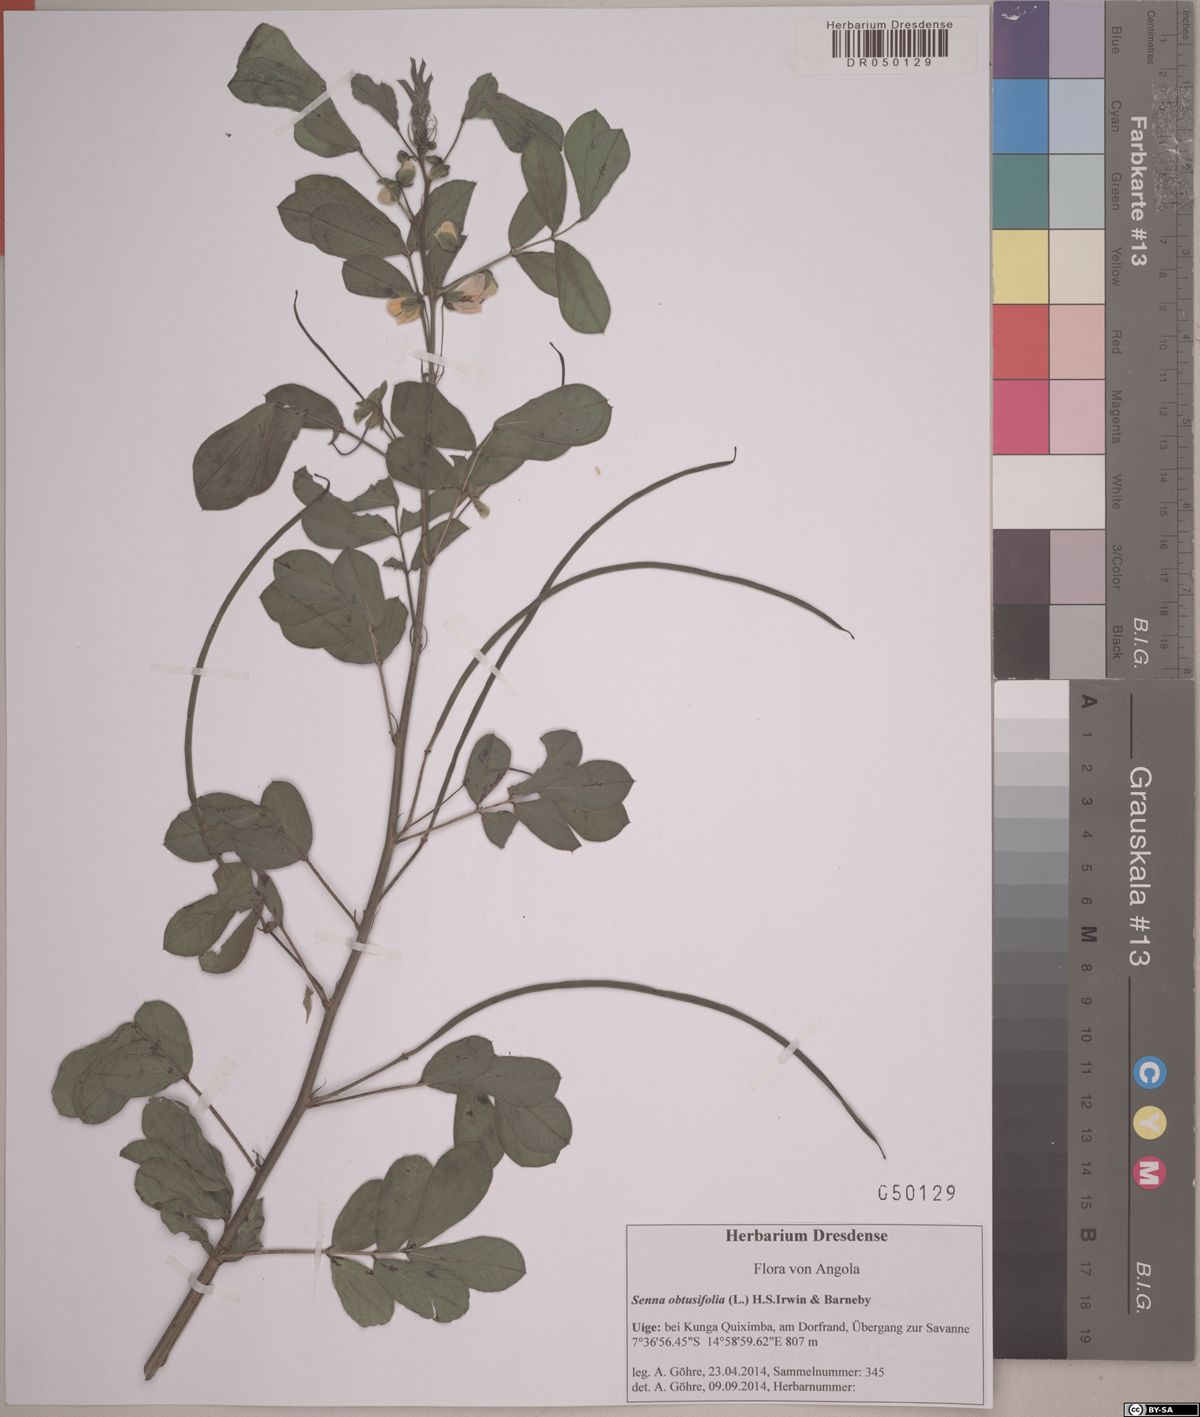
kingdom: Plantae
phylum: Tracheophyta
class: Magnoliopsida
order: Fabales
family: Fabaceae
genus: Senna
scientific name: Senna obtusifolia
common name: Java-bean
